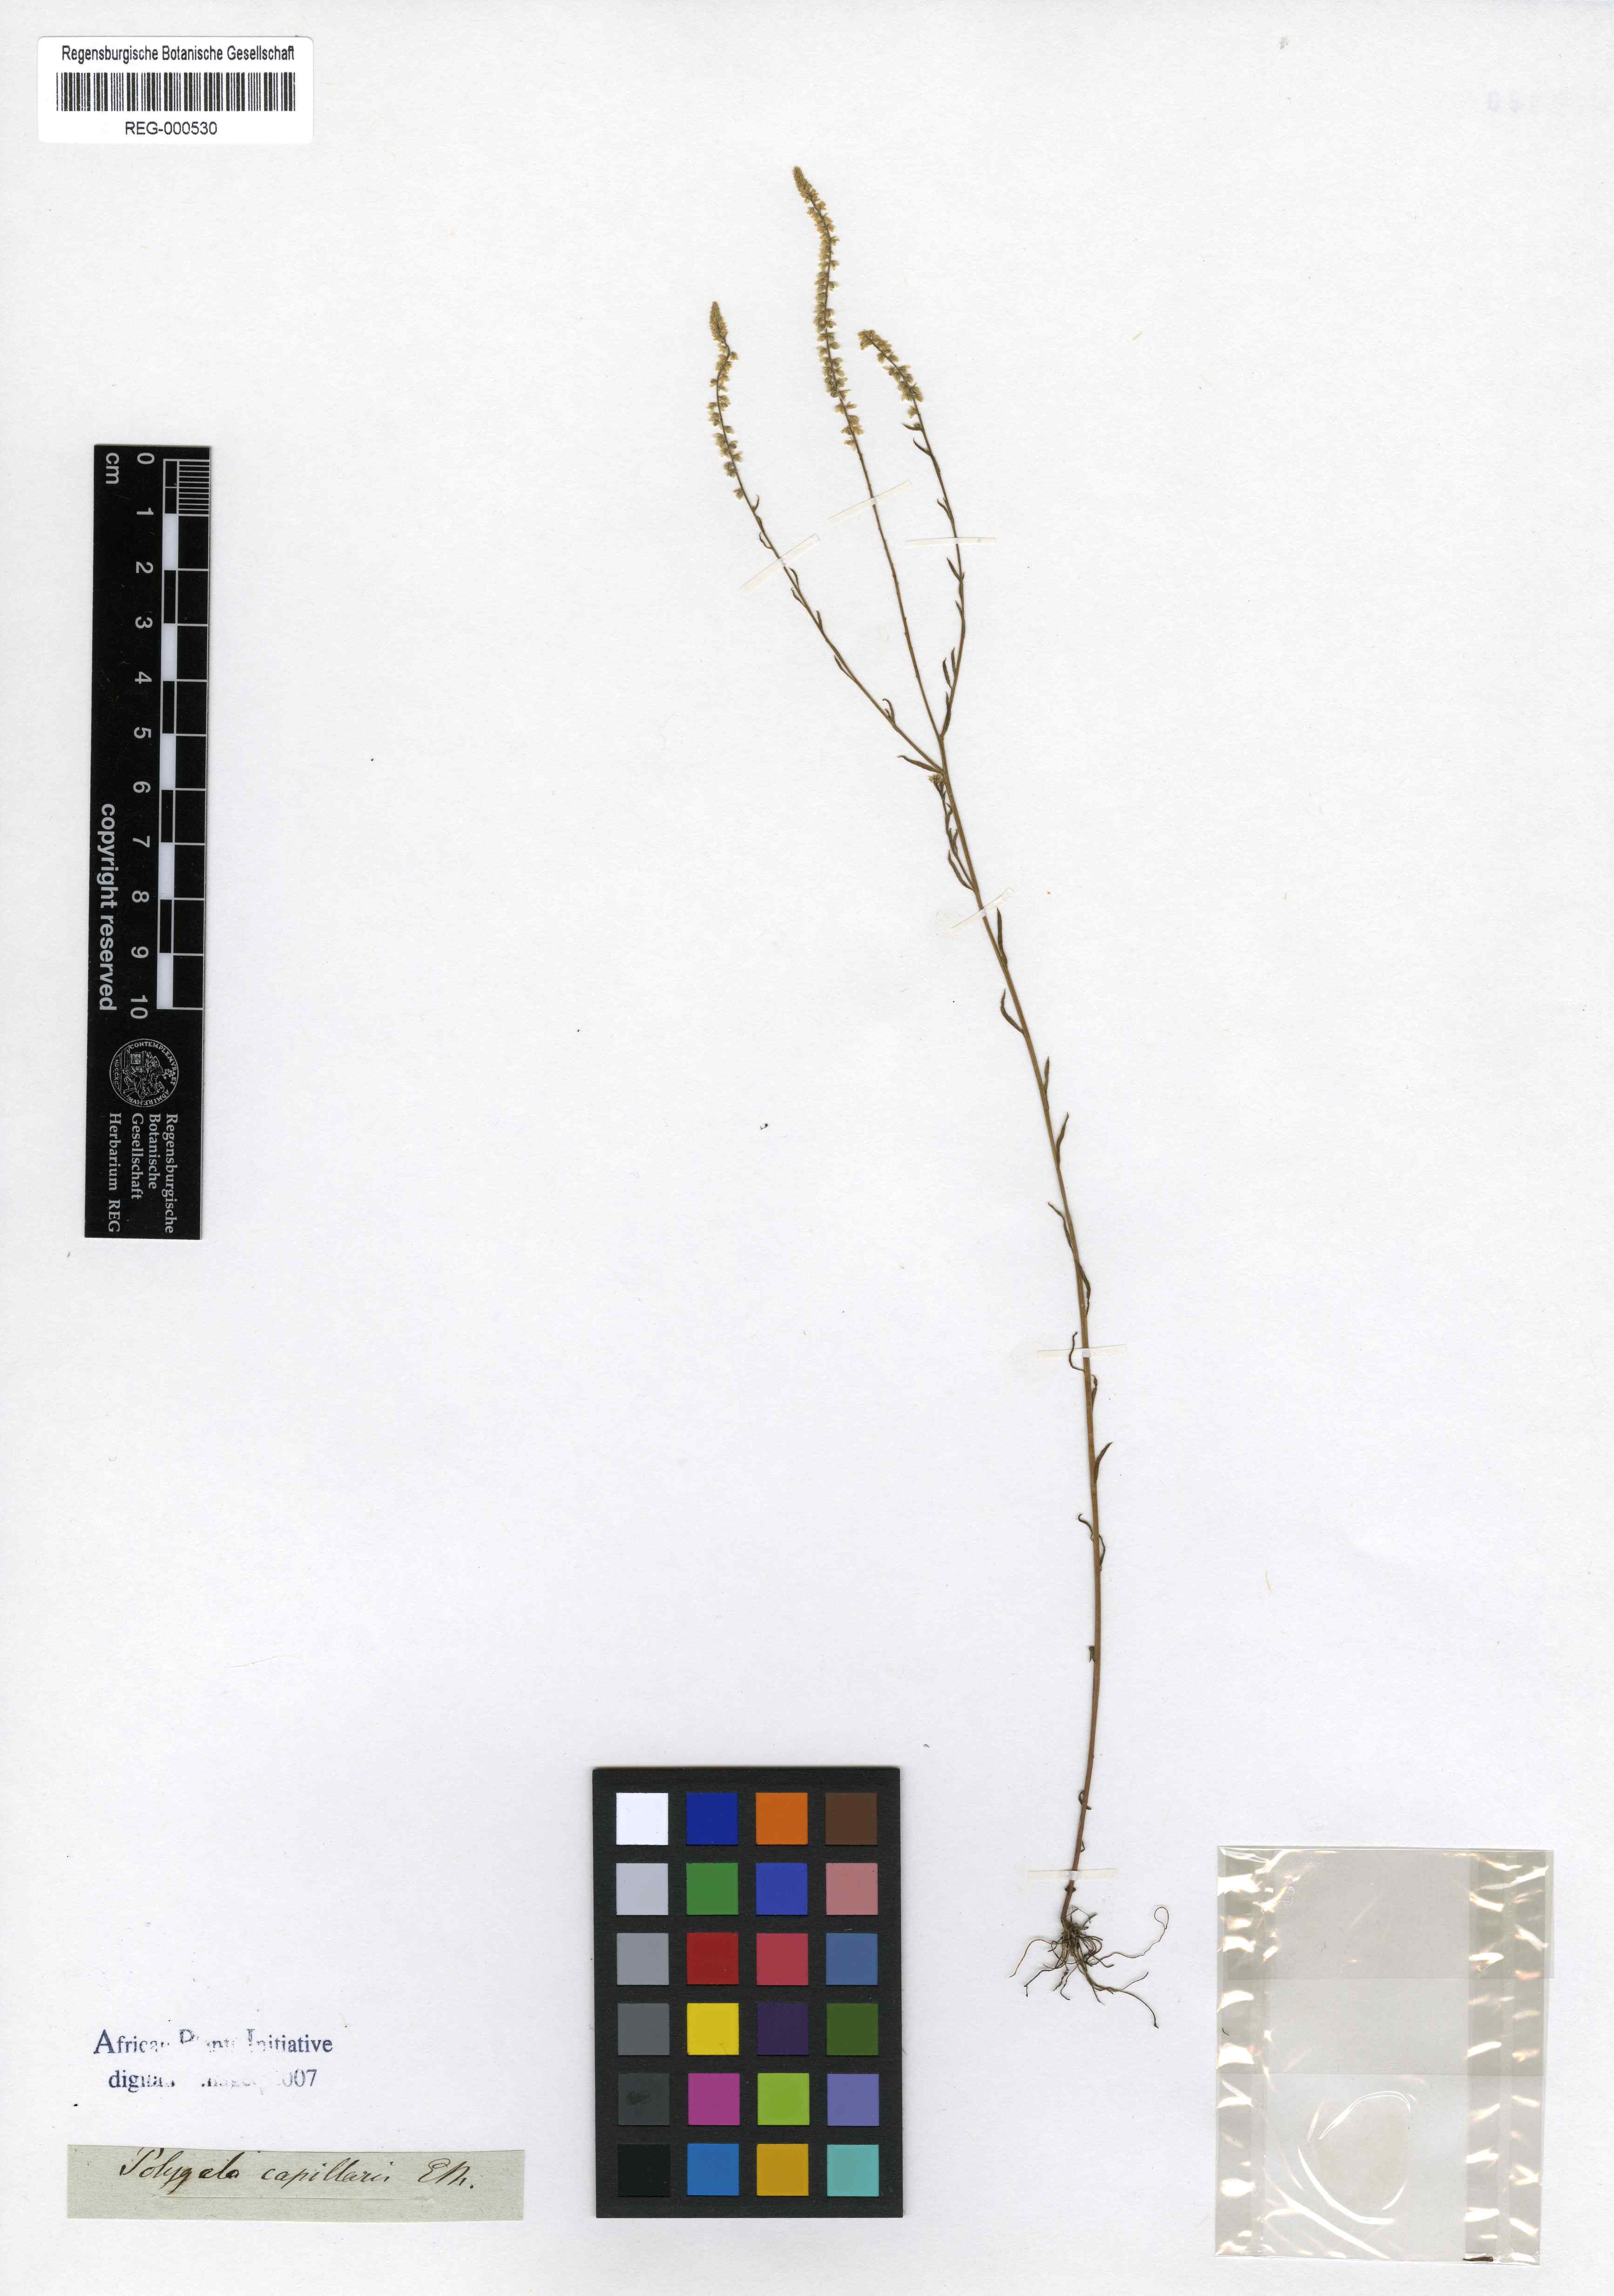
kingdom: Plantae
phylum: Tracheophyta
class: Magnoliopsida
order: Fabales
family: Polygalaceae
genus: Polygala
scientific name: Polygala capillaris
